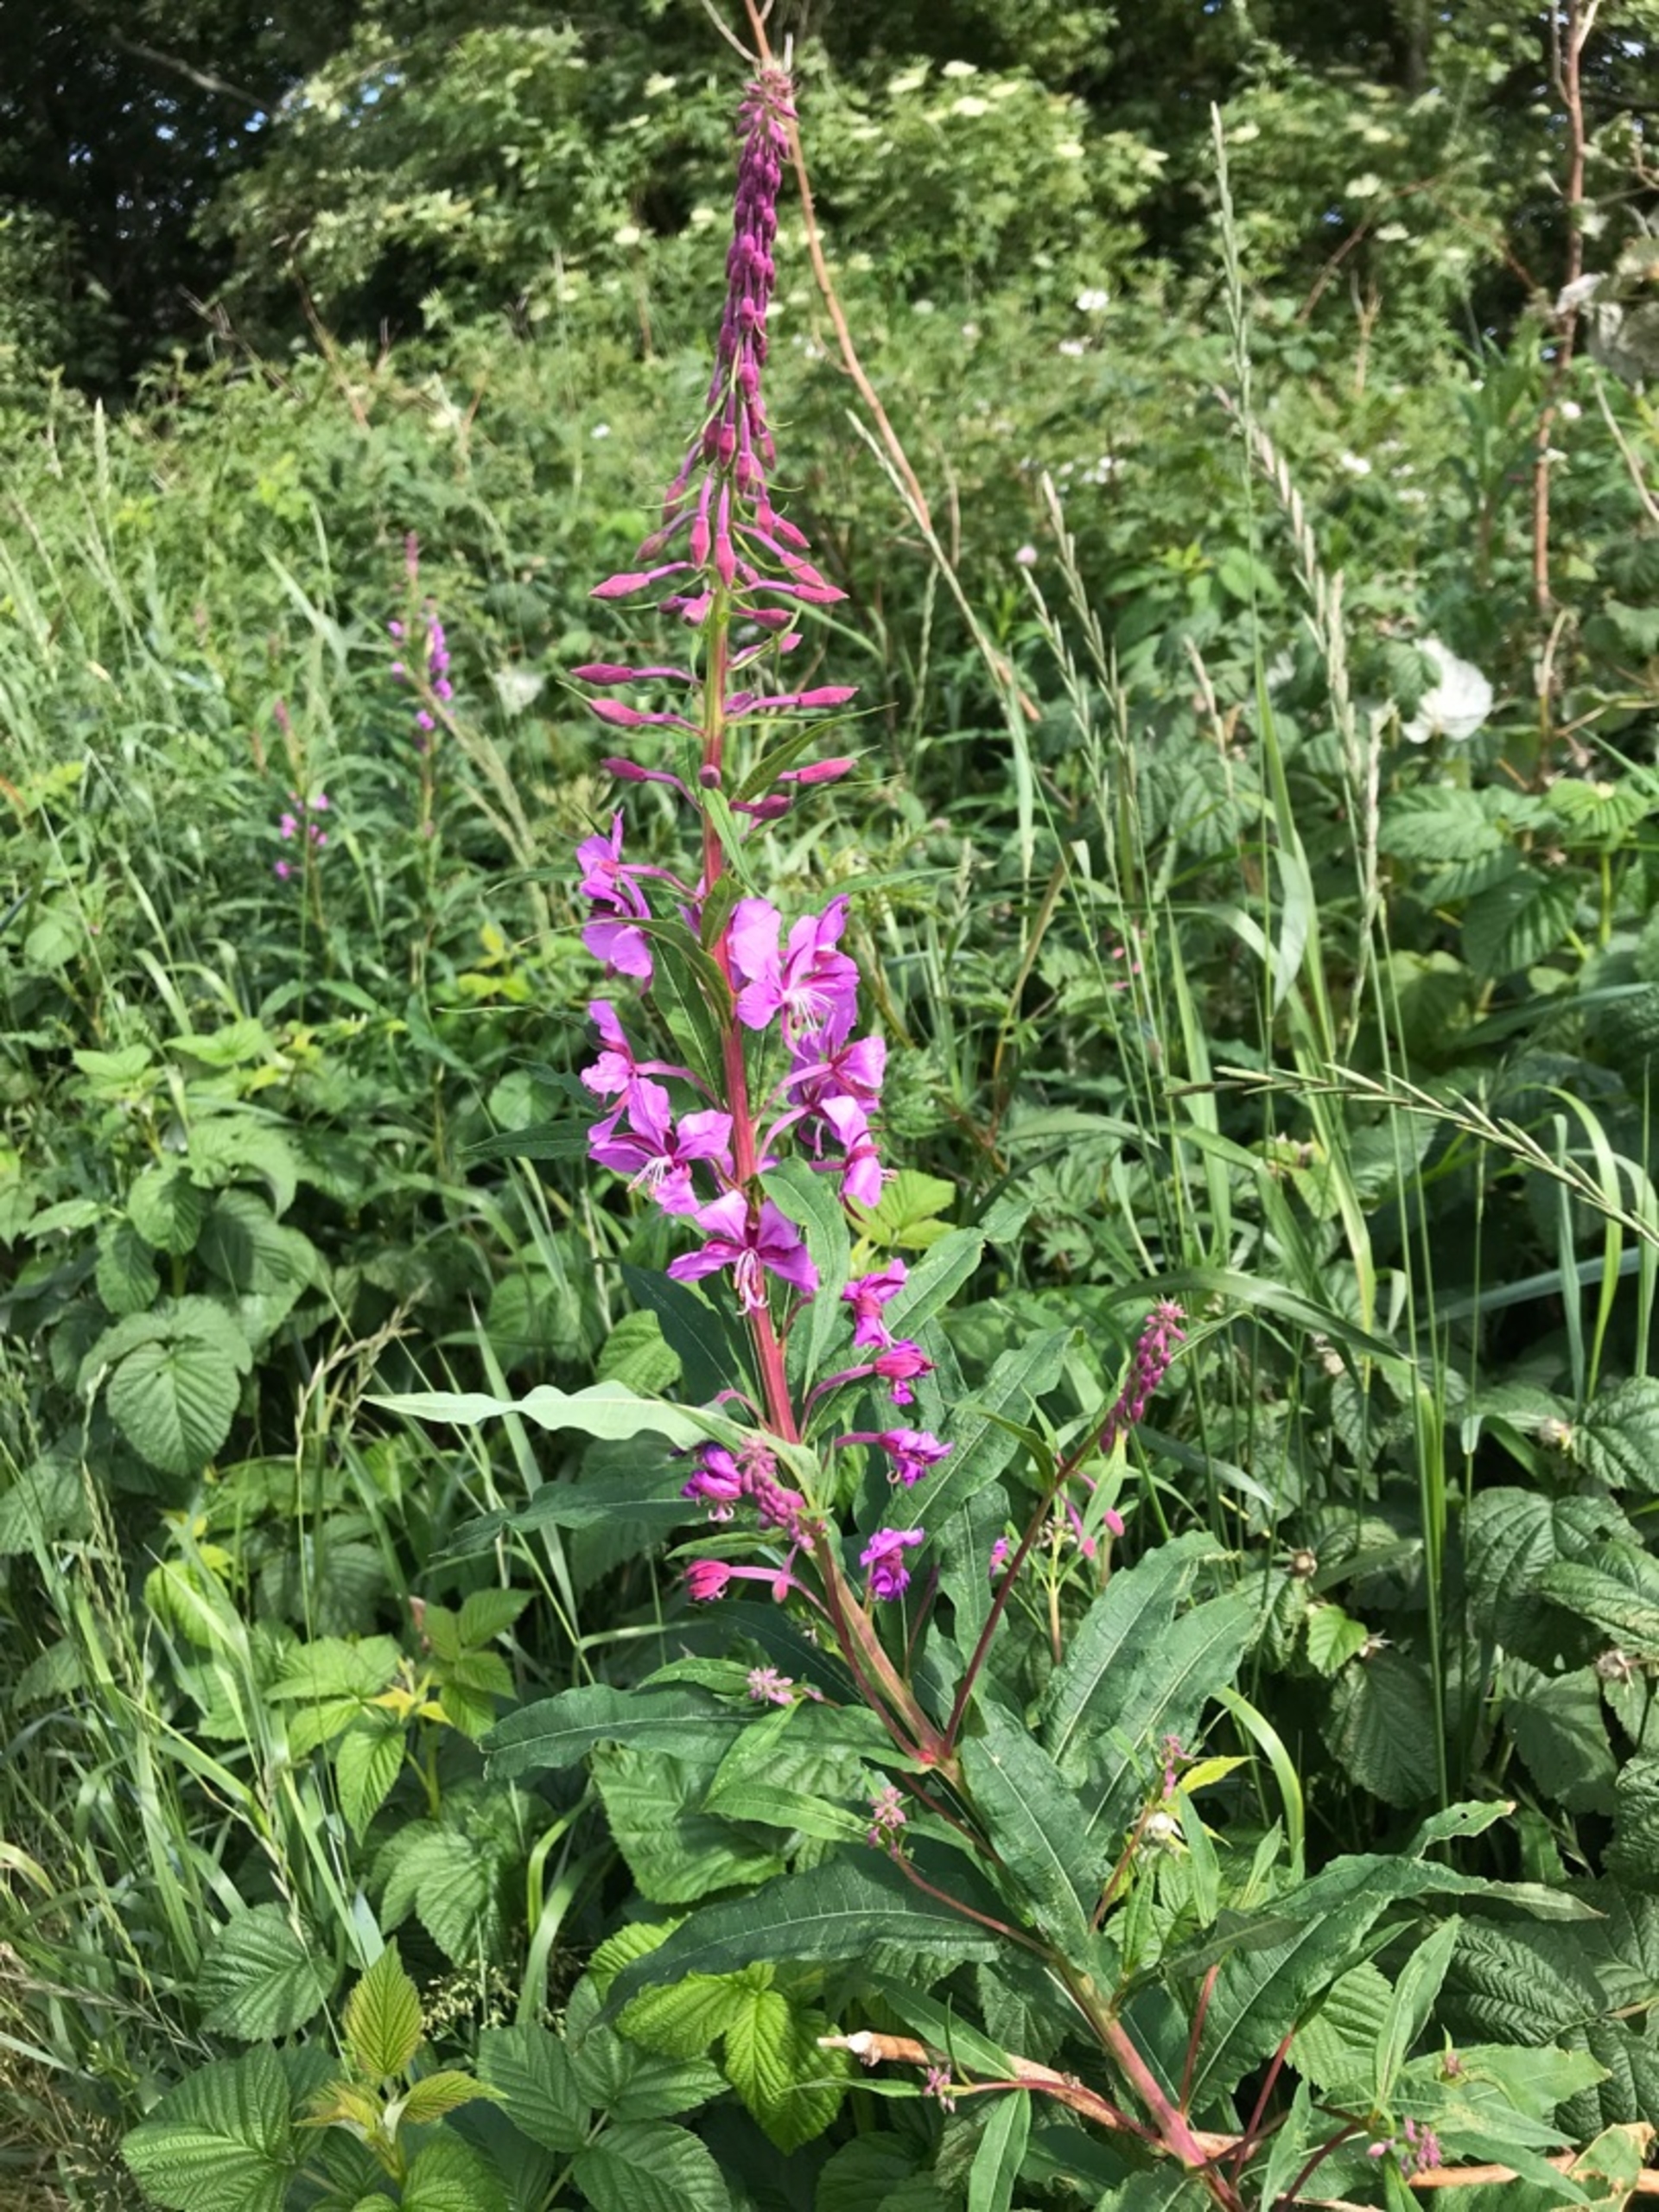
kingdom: Plantae
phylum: Tracheophyta
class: Magnoliopsida
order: Myrtales
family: Onagraceae
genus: Chamaenerion
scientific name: Chamaenerion angustifolium
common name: Gederams
